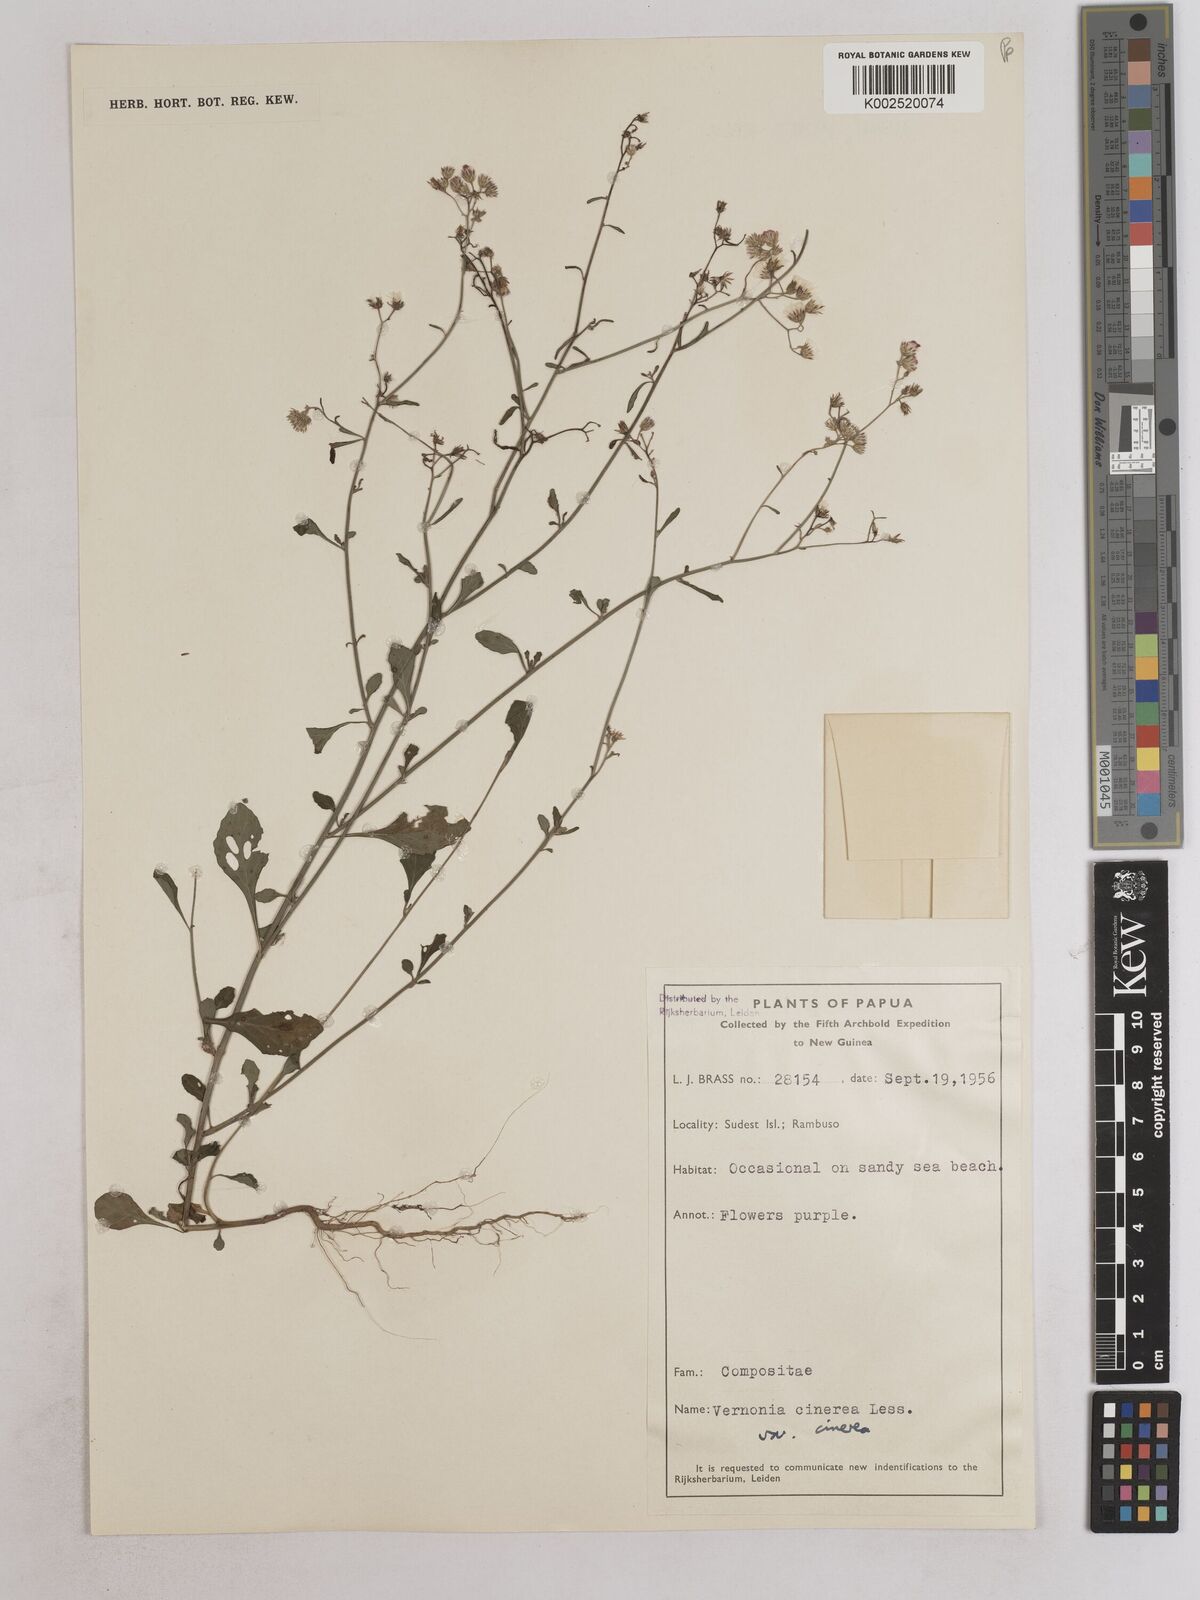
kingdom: Plantae
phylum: Tracheophyta
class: Magnoliopsida
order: Asterales
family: Asteraceae
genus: Cyanthillium
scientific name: Cyanthillium cinereum
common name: Little ironweed
